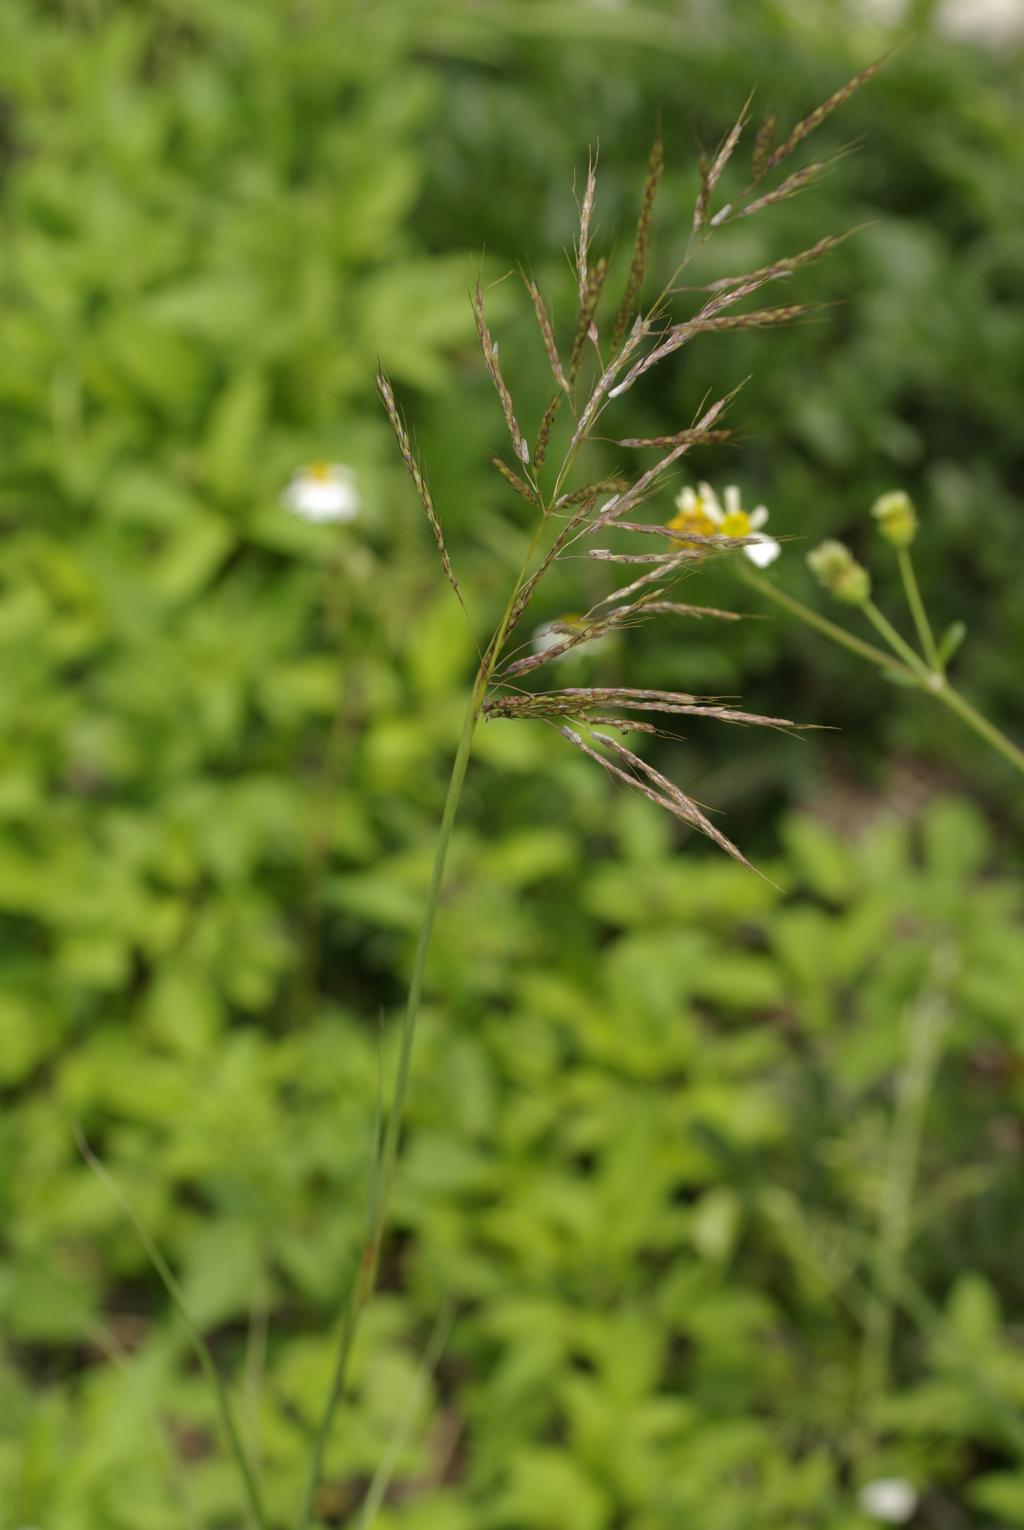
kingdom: Plantae
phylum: Tracheophyta
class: Liliopsida
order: Poales
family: Poaceae
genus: Bothriochloa
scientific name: Bothriochloa bladhii
